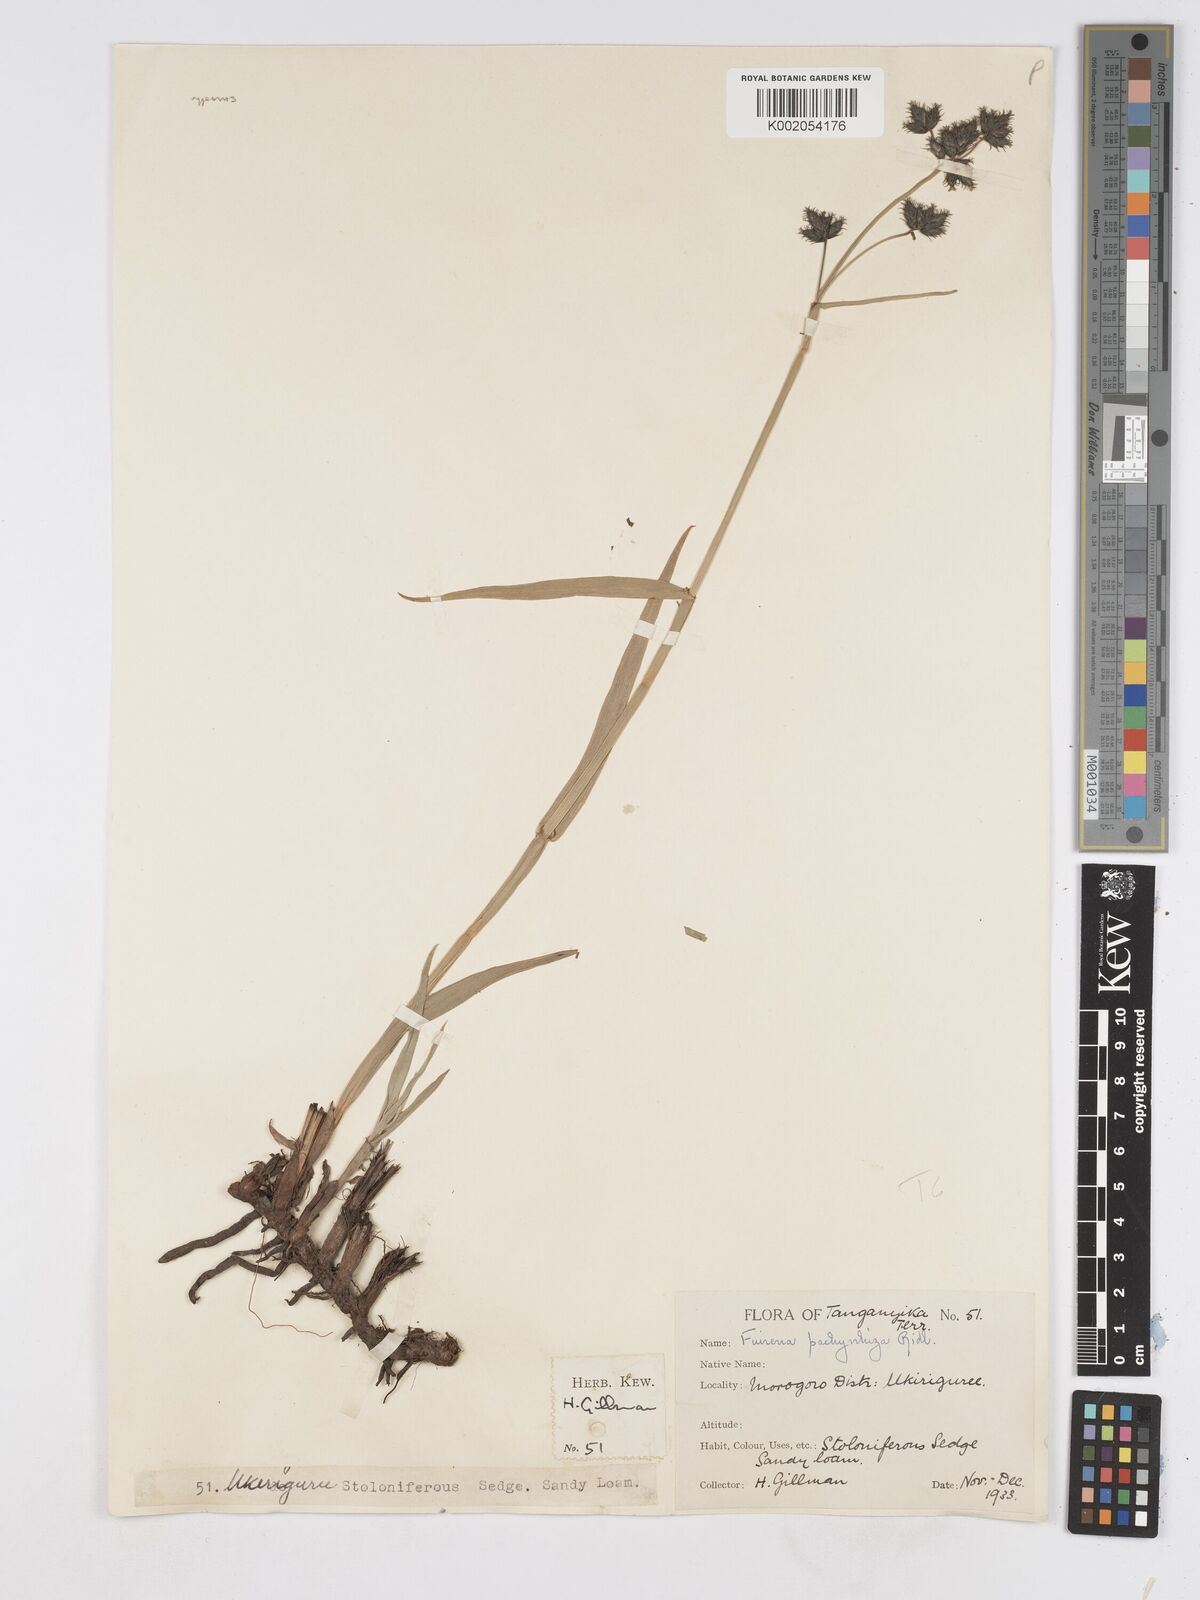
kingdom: Plantae
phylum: Tracheophyta
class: Liliopsida
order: Poales
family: Cyperaceae
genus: Fuirena
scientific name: Fuirena pachyrrhiza
